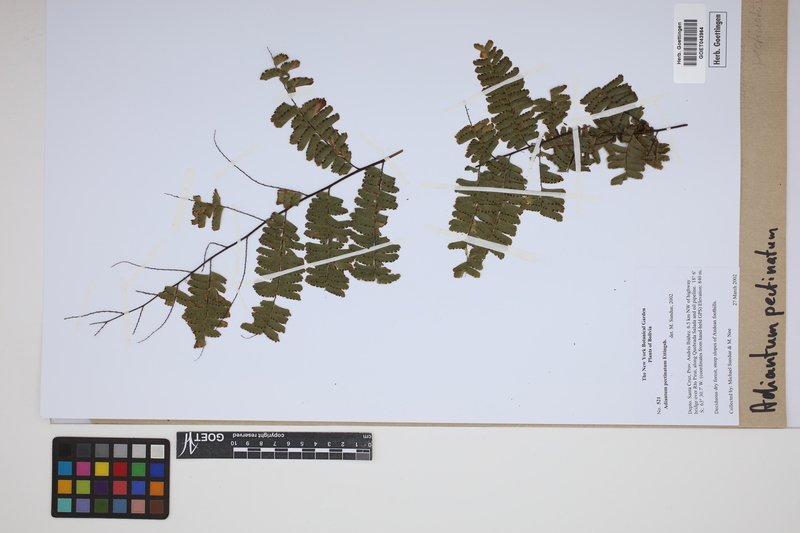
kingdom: Plantae
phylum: Tracheophyta
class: Polypodiopsida
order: Polypodiales
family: Pteridaceae
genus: Adiantum
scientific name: Adiantum pectinatum
